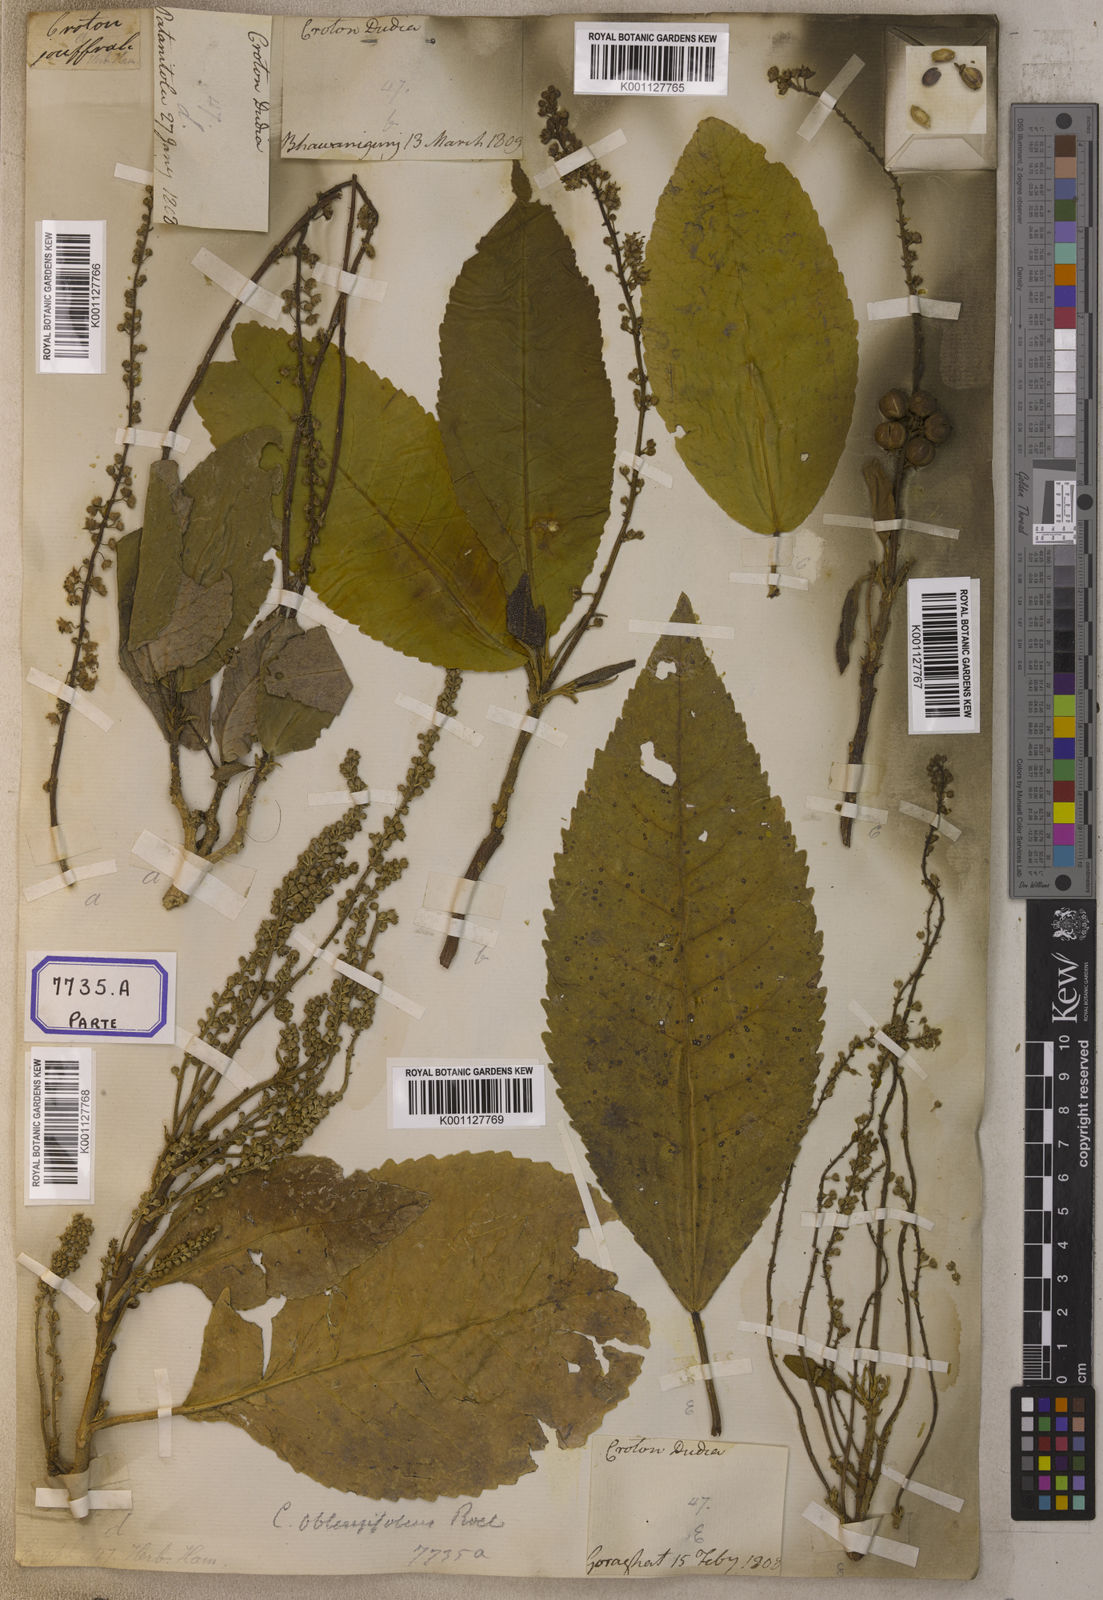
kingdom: Plantae
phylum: Tracheophyta
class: Magnoliopsida
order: Malpighiales
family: Euphorbiaceae
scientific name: Euphorbiaceae
